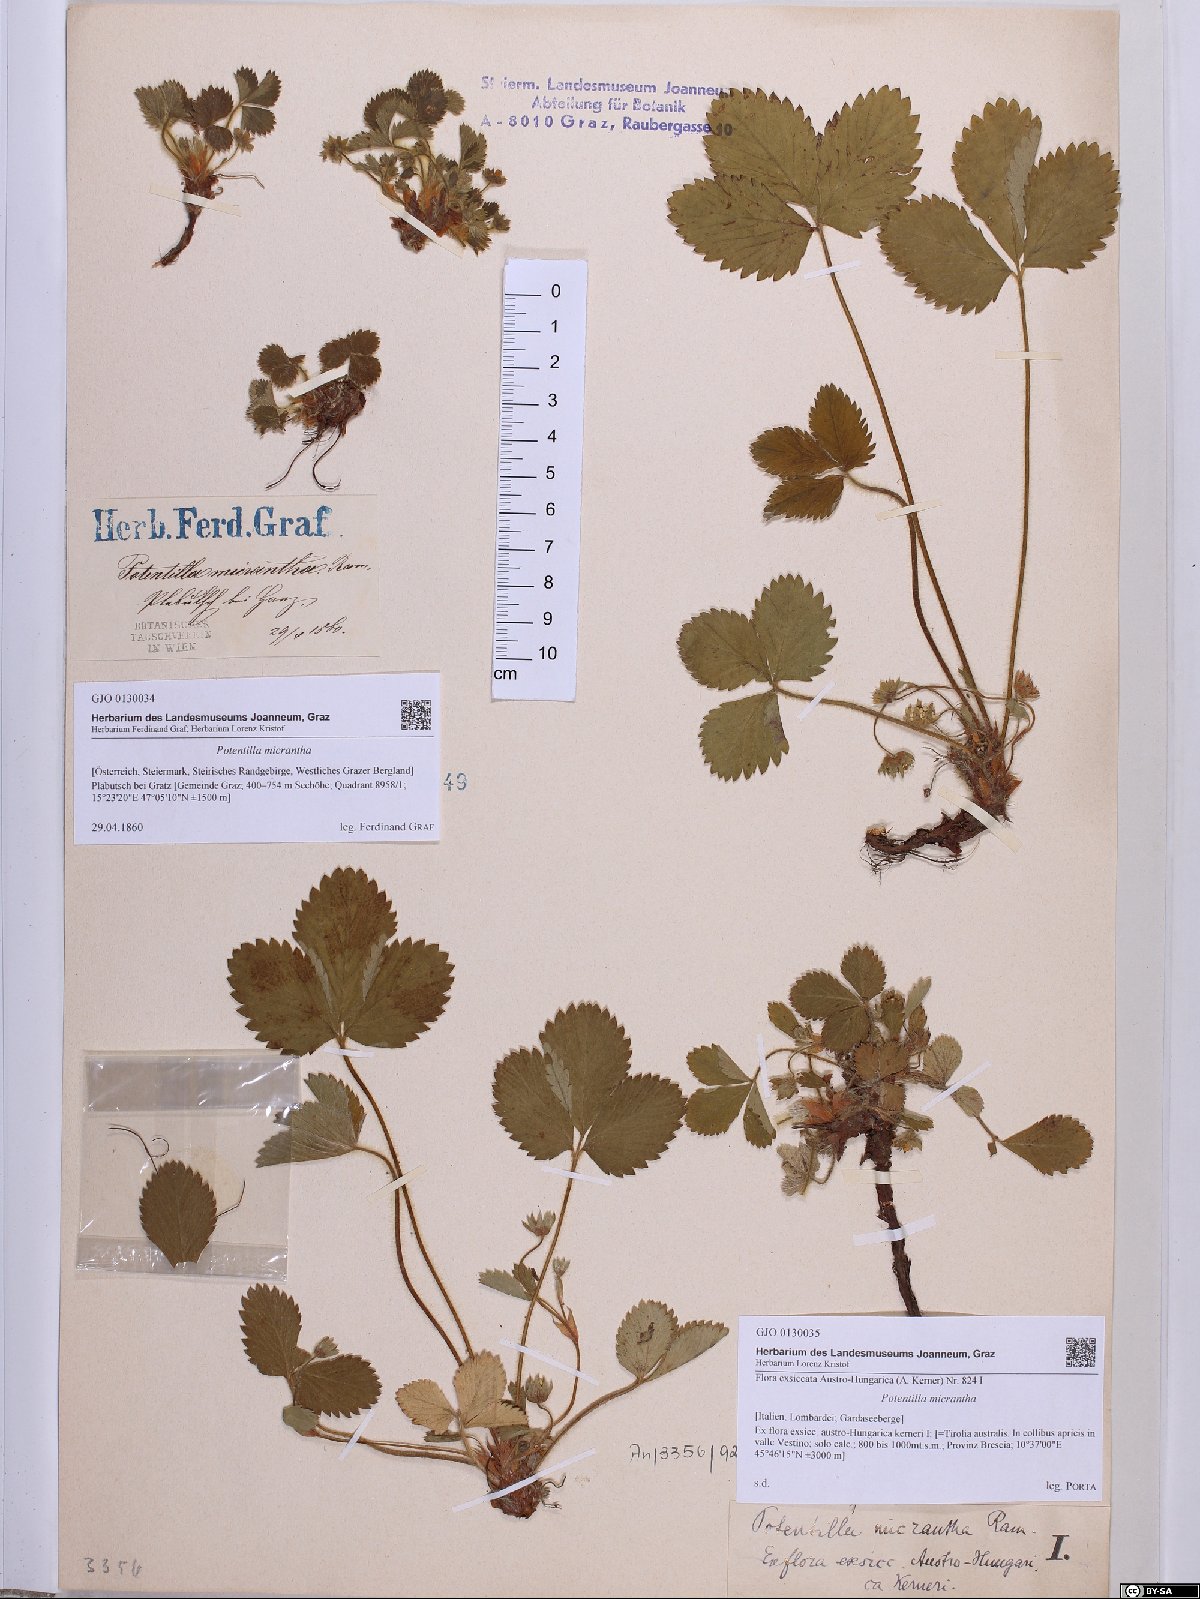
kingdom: Plantae
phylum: Tracheophyta
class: Magnoliopsida
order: Rosales
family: Rosaceae
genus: Potentilla
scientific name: Potentilla micrantha
